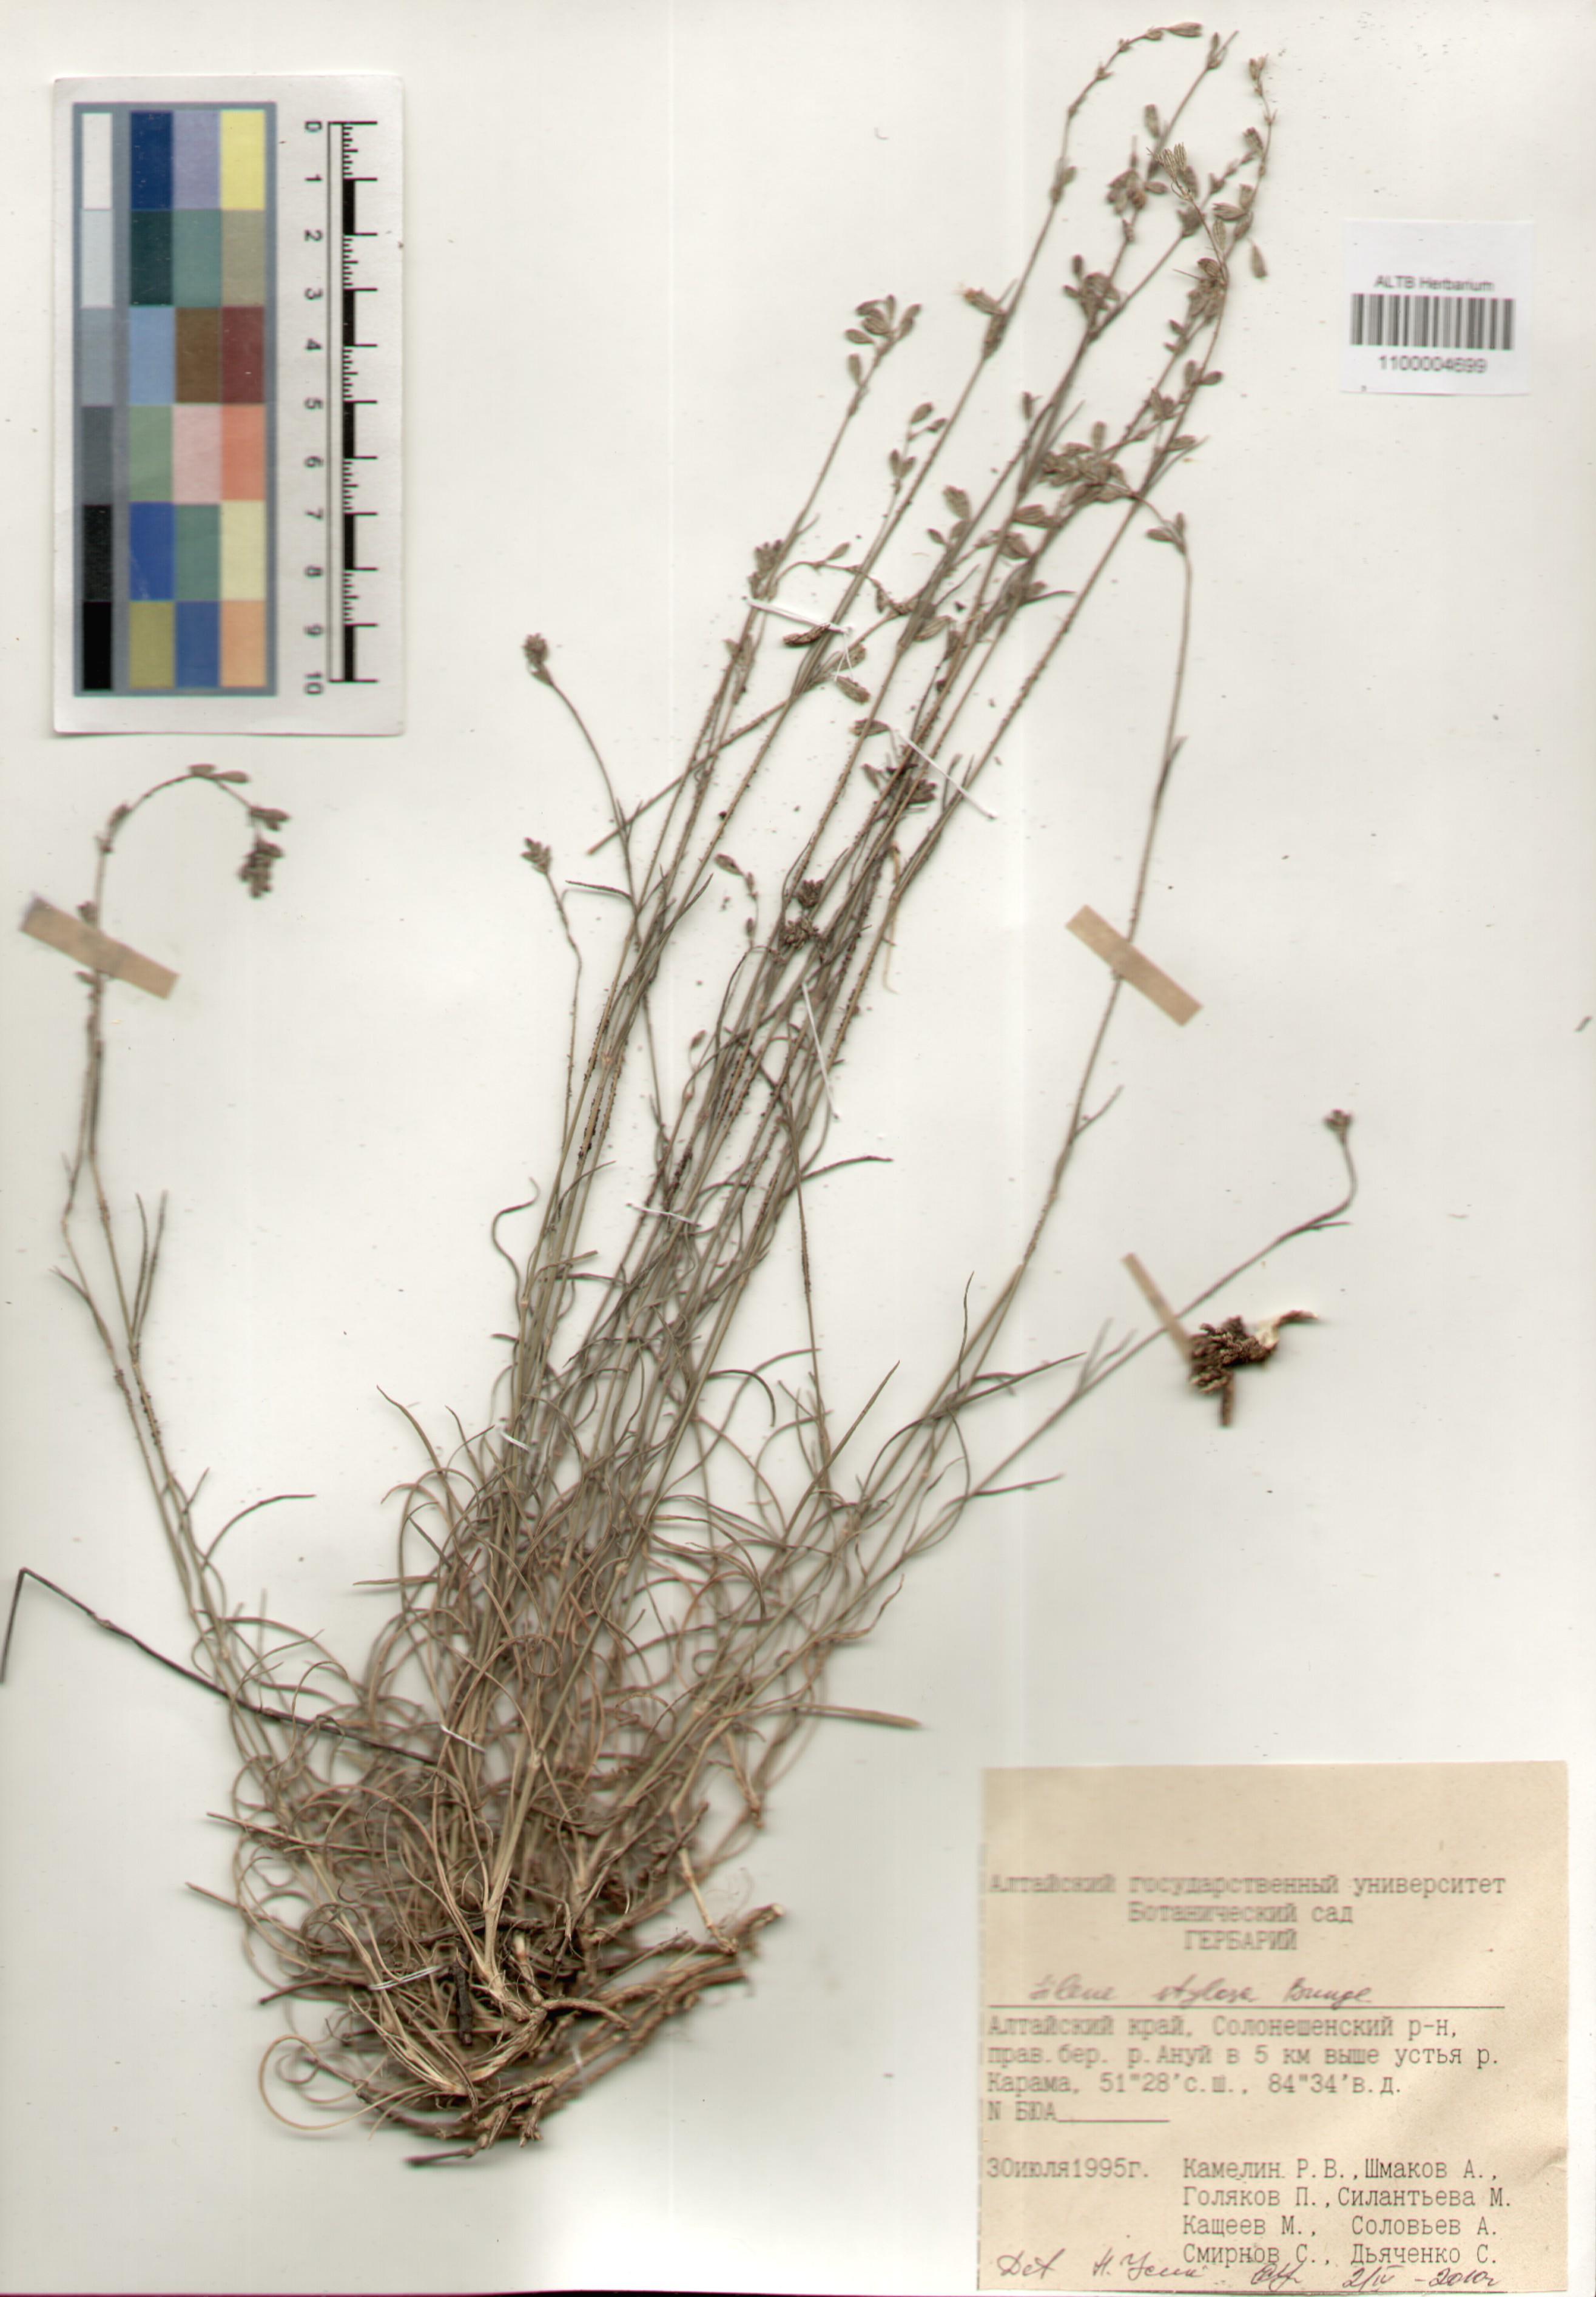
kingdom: Plantae
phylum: Tracheophyta
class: Magnoliopsida
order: Caryophyllales
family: Caryophyllaceae
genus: Silene
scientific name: Silene graminifolia
